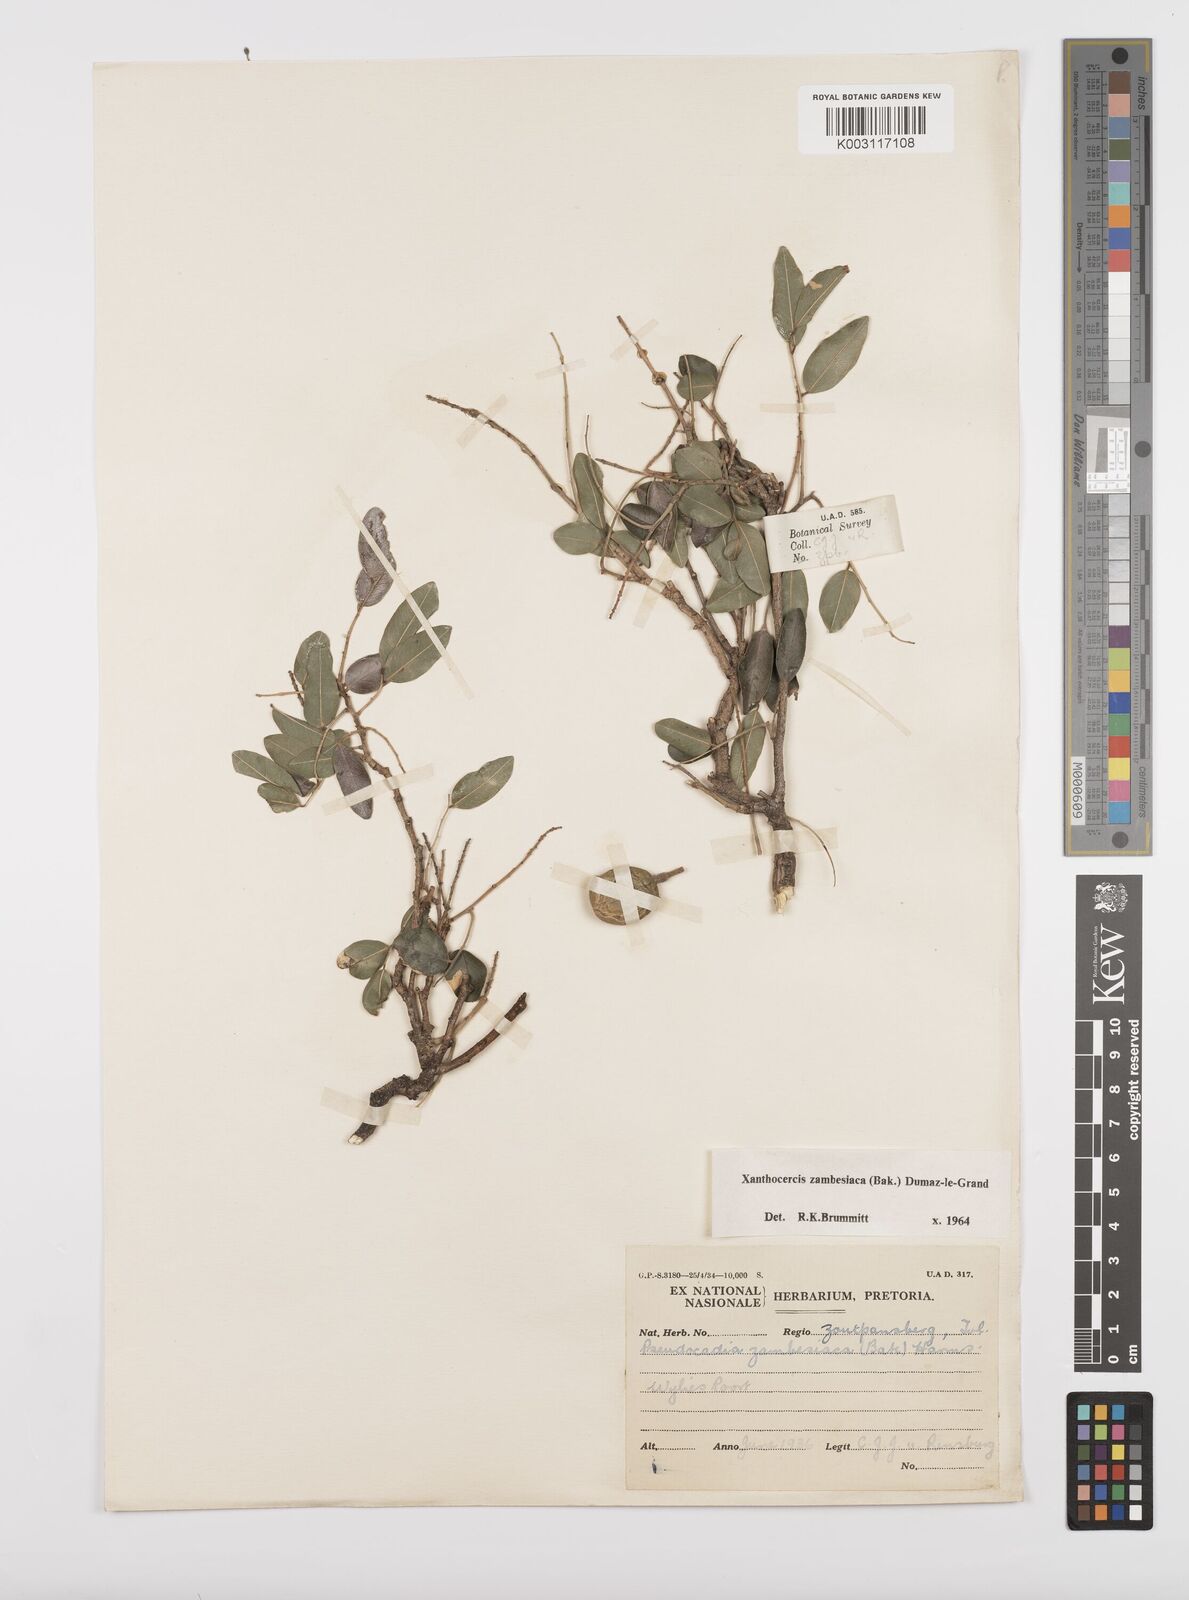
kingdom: Plantae
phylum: Tracheophyta
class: Magnoliopsida
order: Fabales
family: Fabaceae
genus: Xanthocercis
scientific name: Xanthocercis zambesiaca
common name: Nyala-tree
